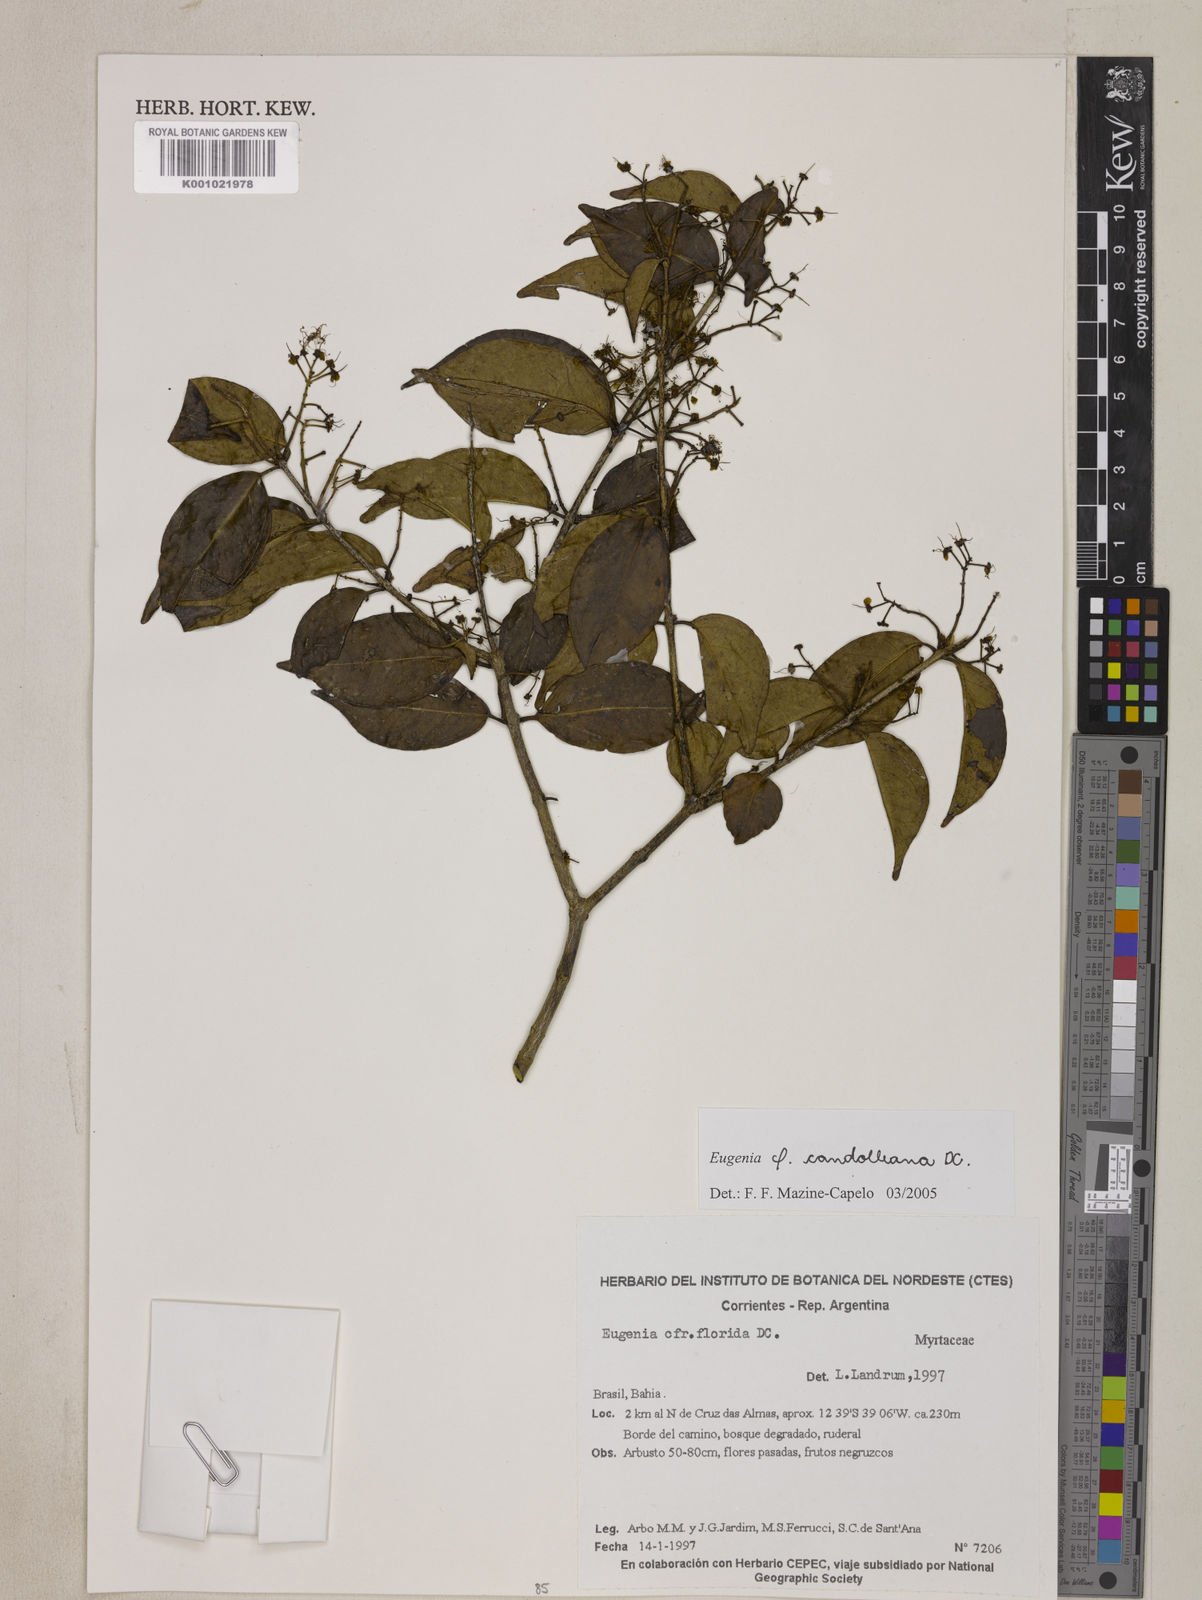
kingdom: Plantae
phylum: Tracheophyta
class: Magnoliopsida
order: Myrtales
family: Myrtaceae
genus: Eugenia
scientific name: Eugenia candolleana
